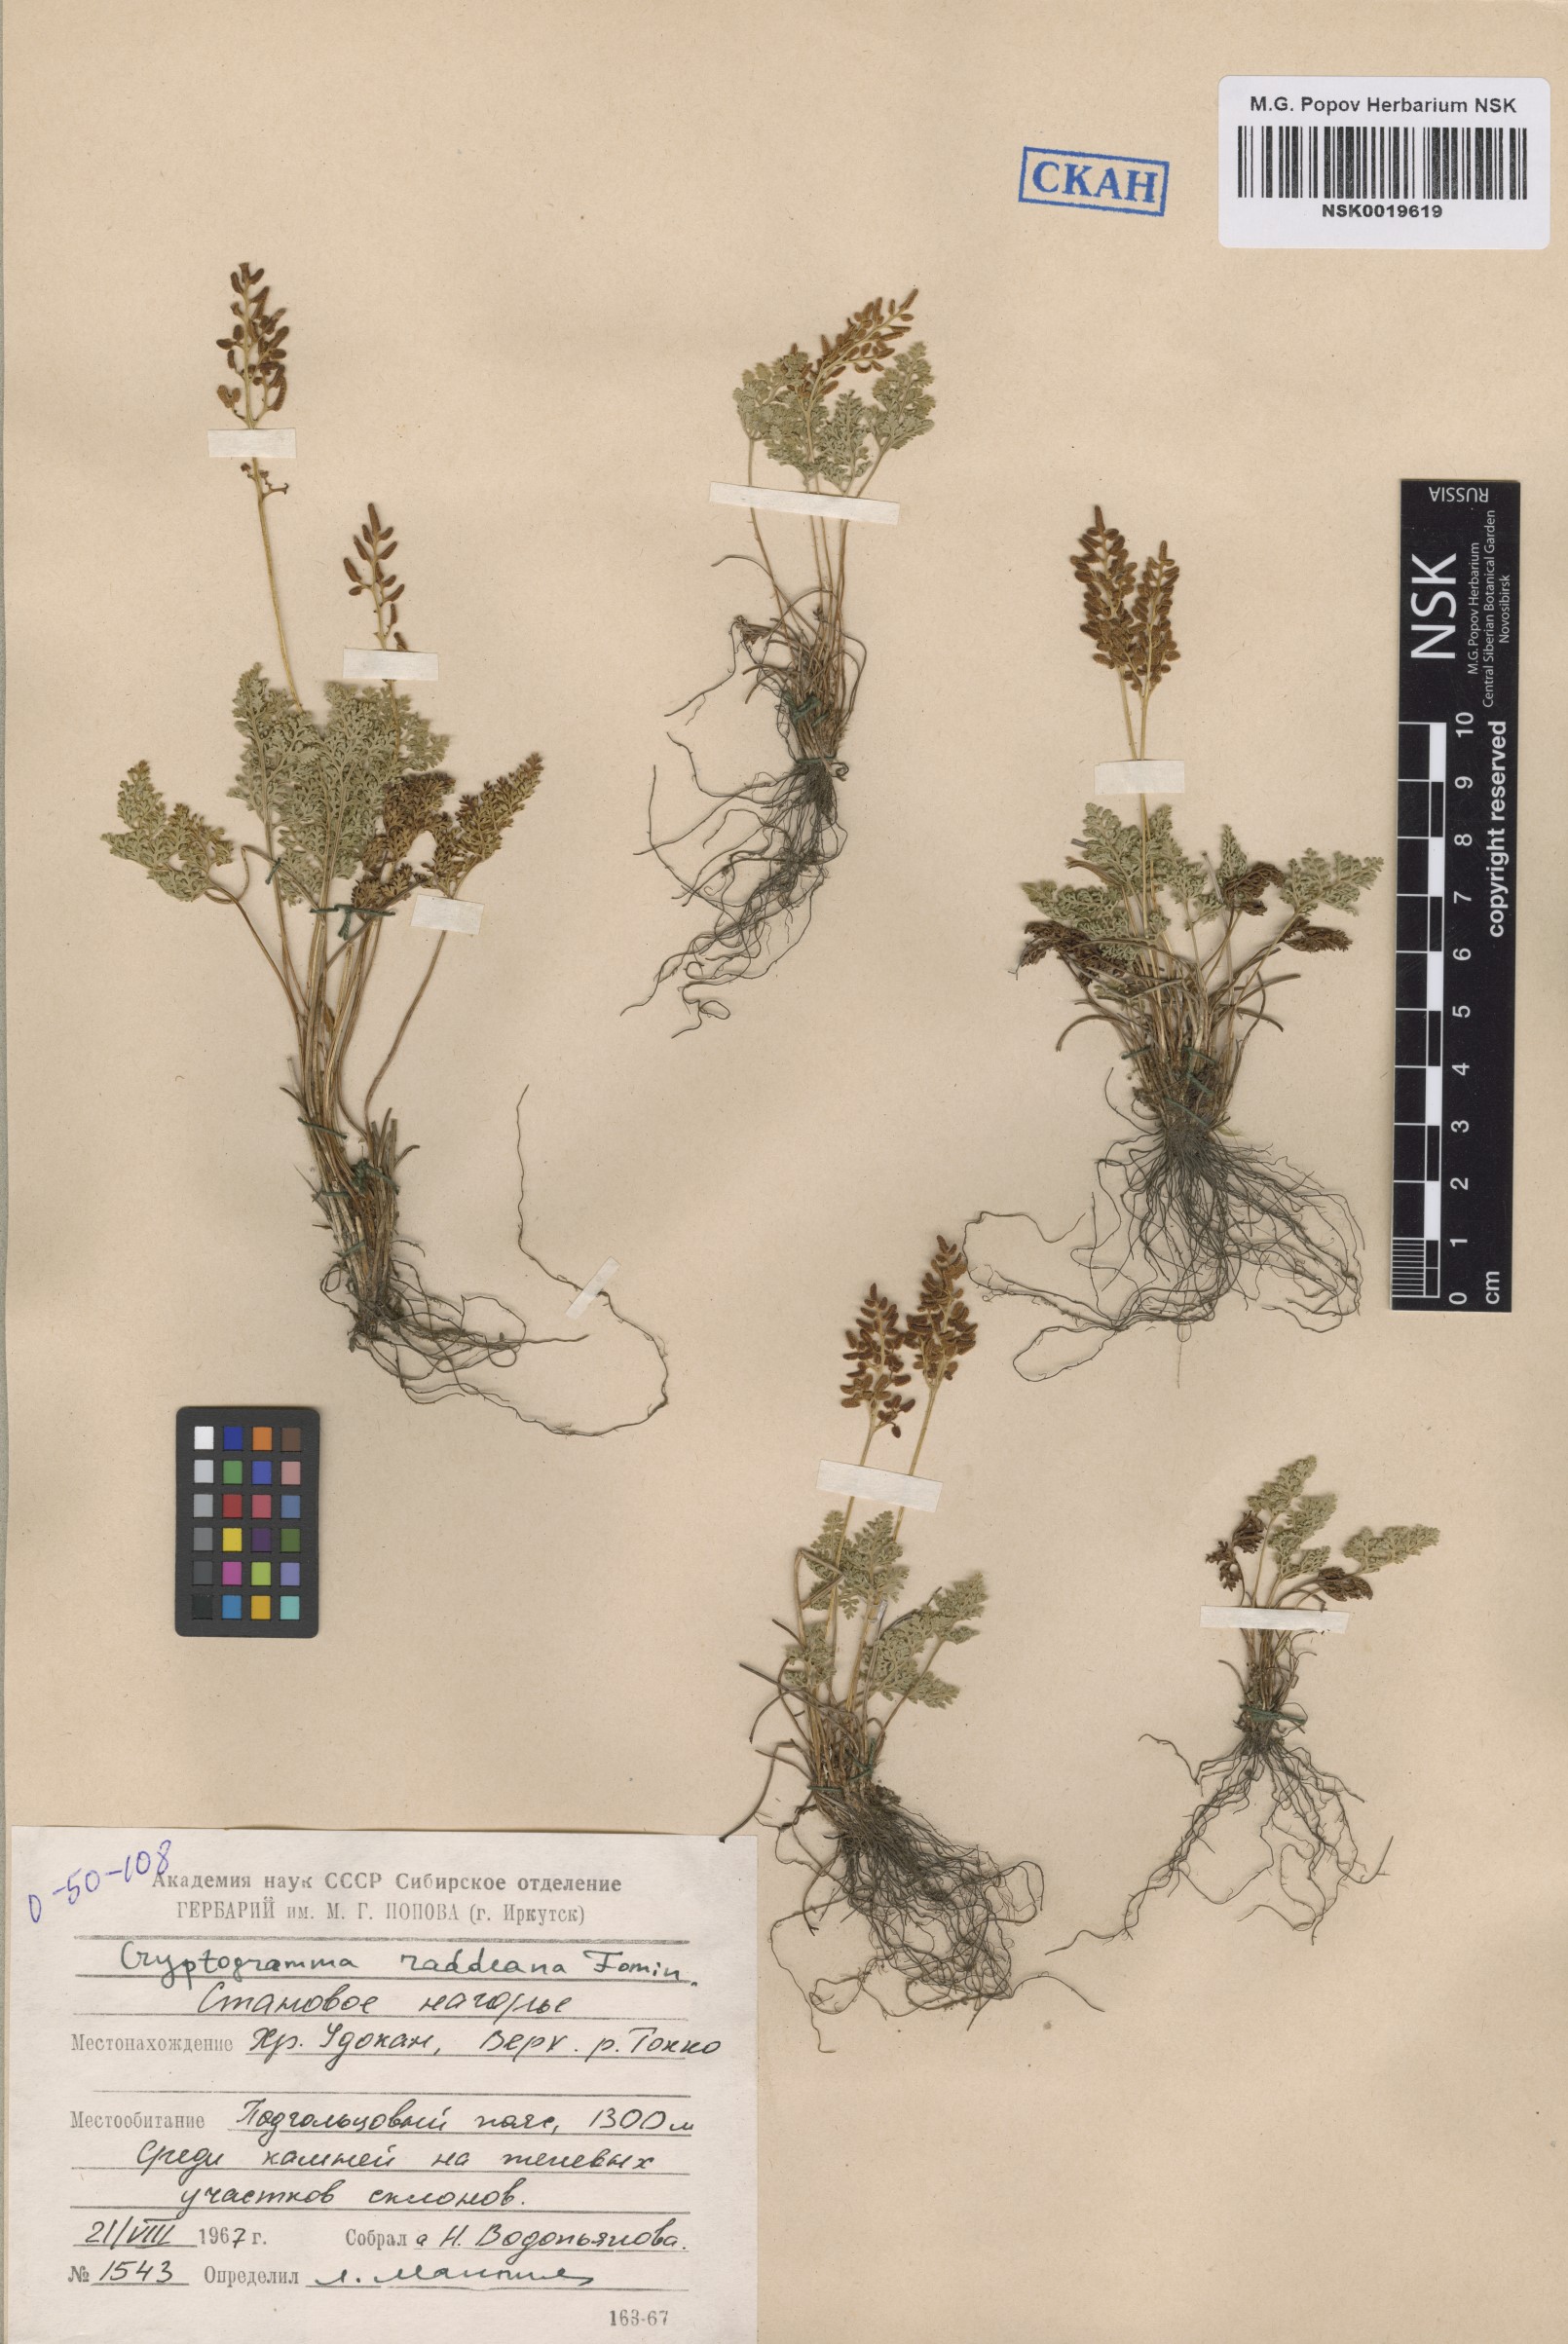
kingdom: Plantae
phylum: Tracheophyta
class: Polypodiopsida
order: Polypodiales
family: Pteridaceae
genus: Cryptogramma
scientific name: Cryptogramma brunoniana
